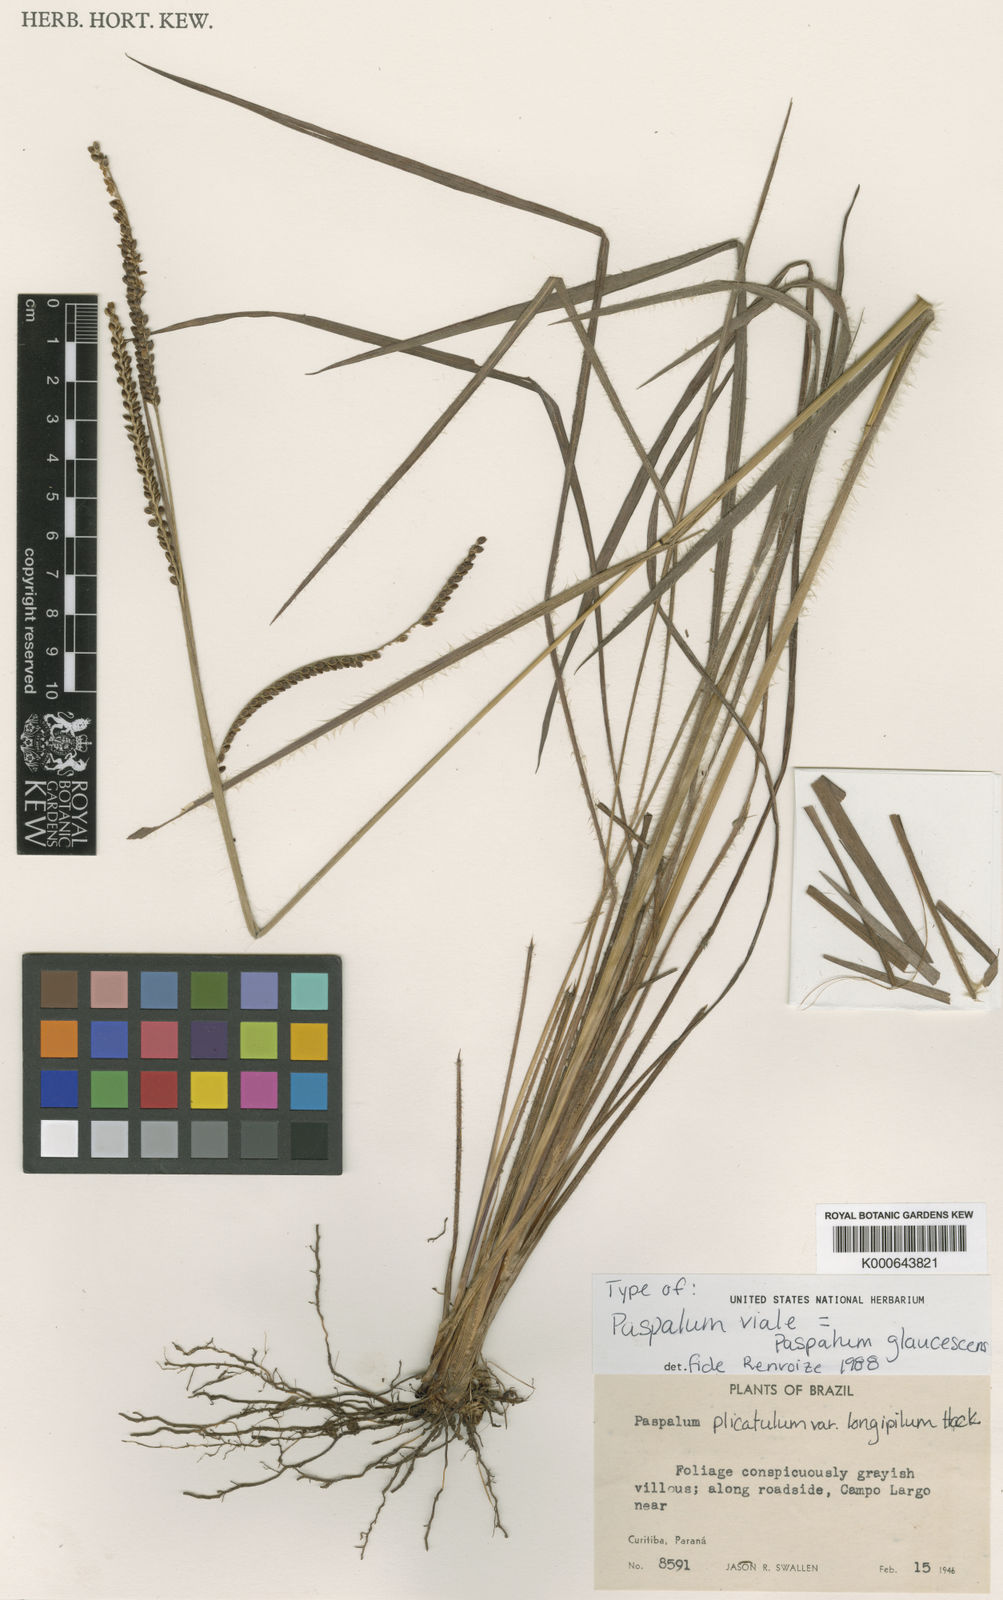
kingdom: Plantae
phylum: Tracheophyta
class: Liliopsida
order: Poales
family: Poaceae
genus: Paspalum
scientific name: Paspalum glaucescens
